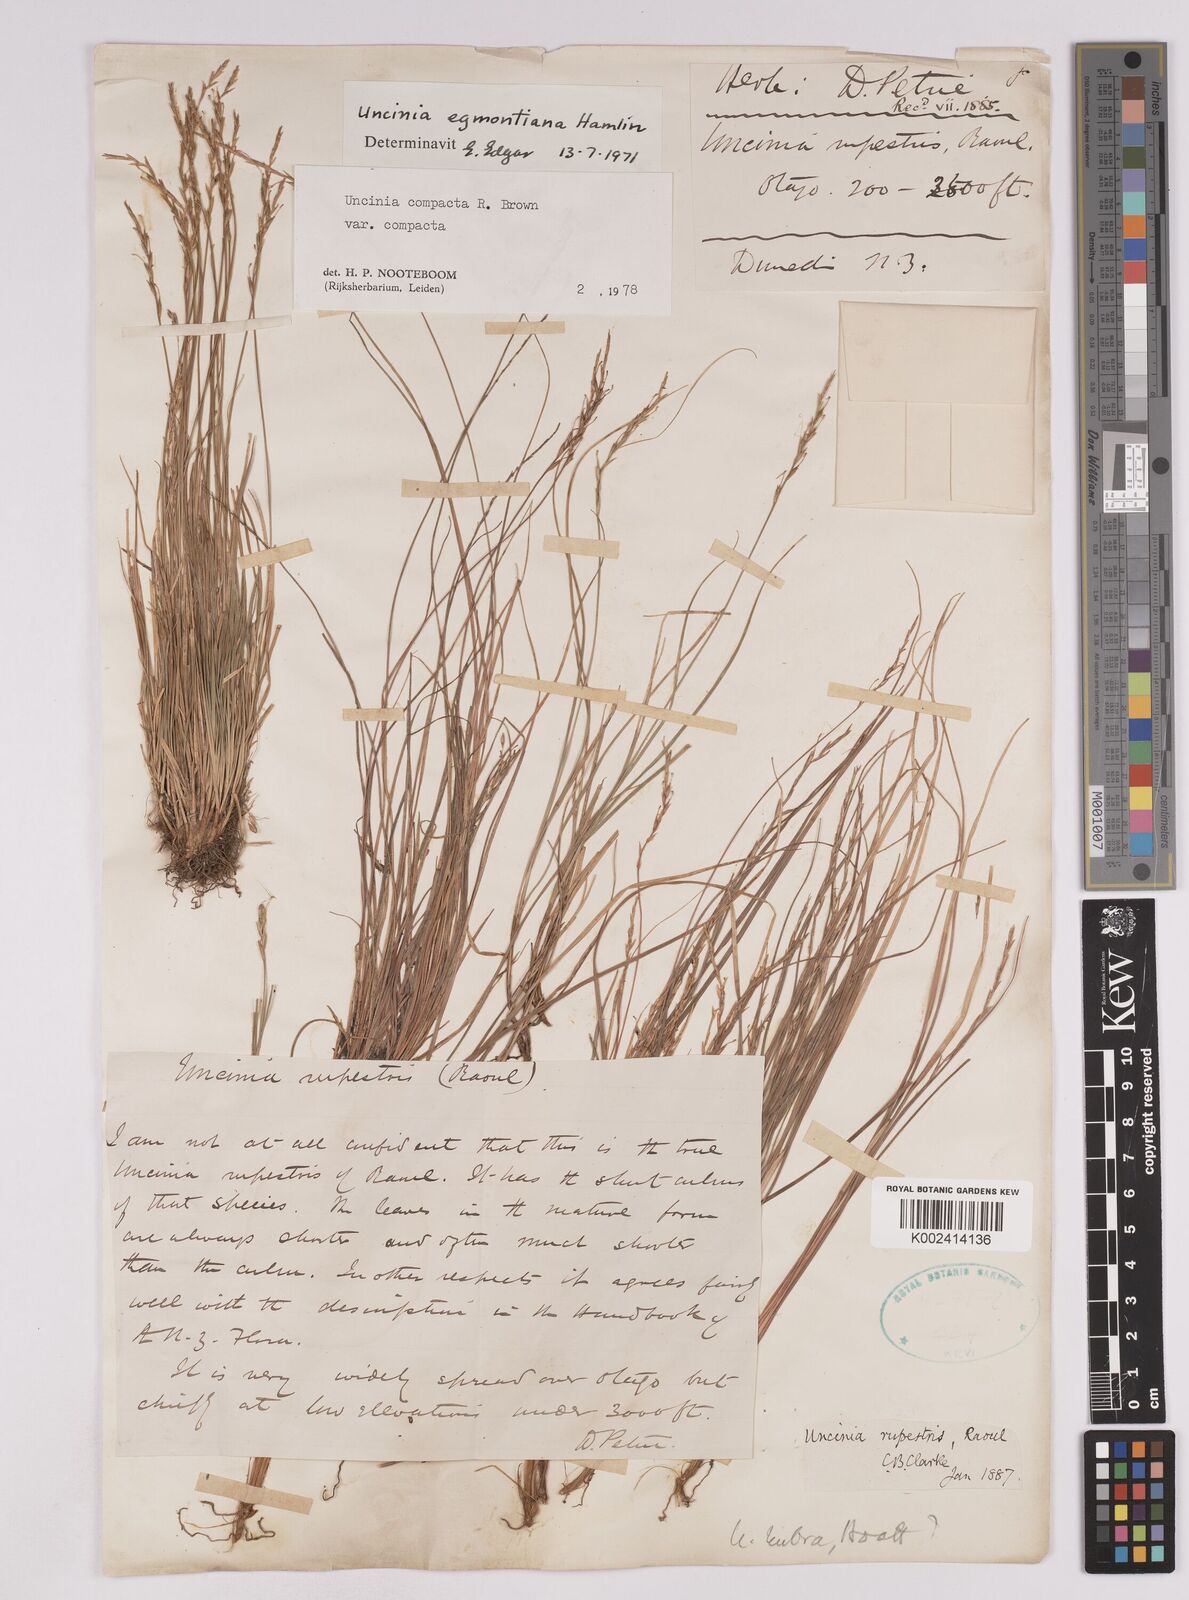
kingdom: Plantae
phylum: Tracheophyta
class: Liliopsida
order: Poales
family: Cyperaceae
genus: Carex
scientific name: Carex austrocompacta
